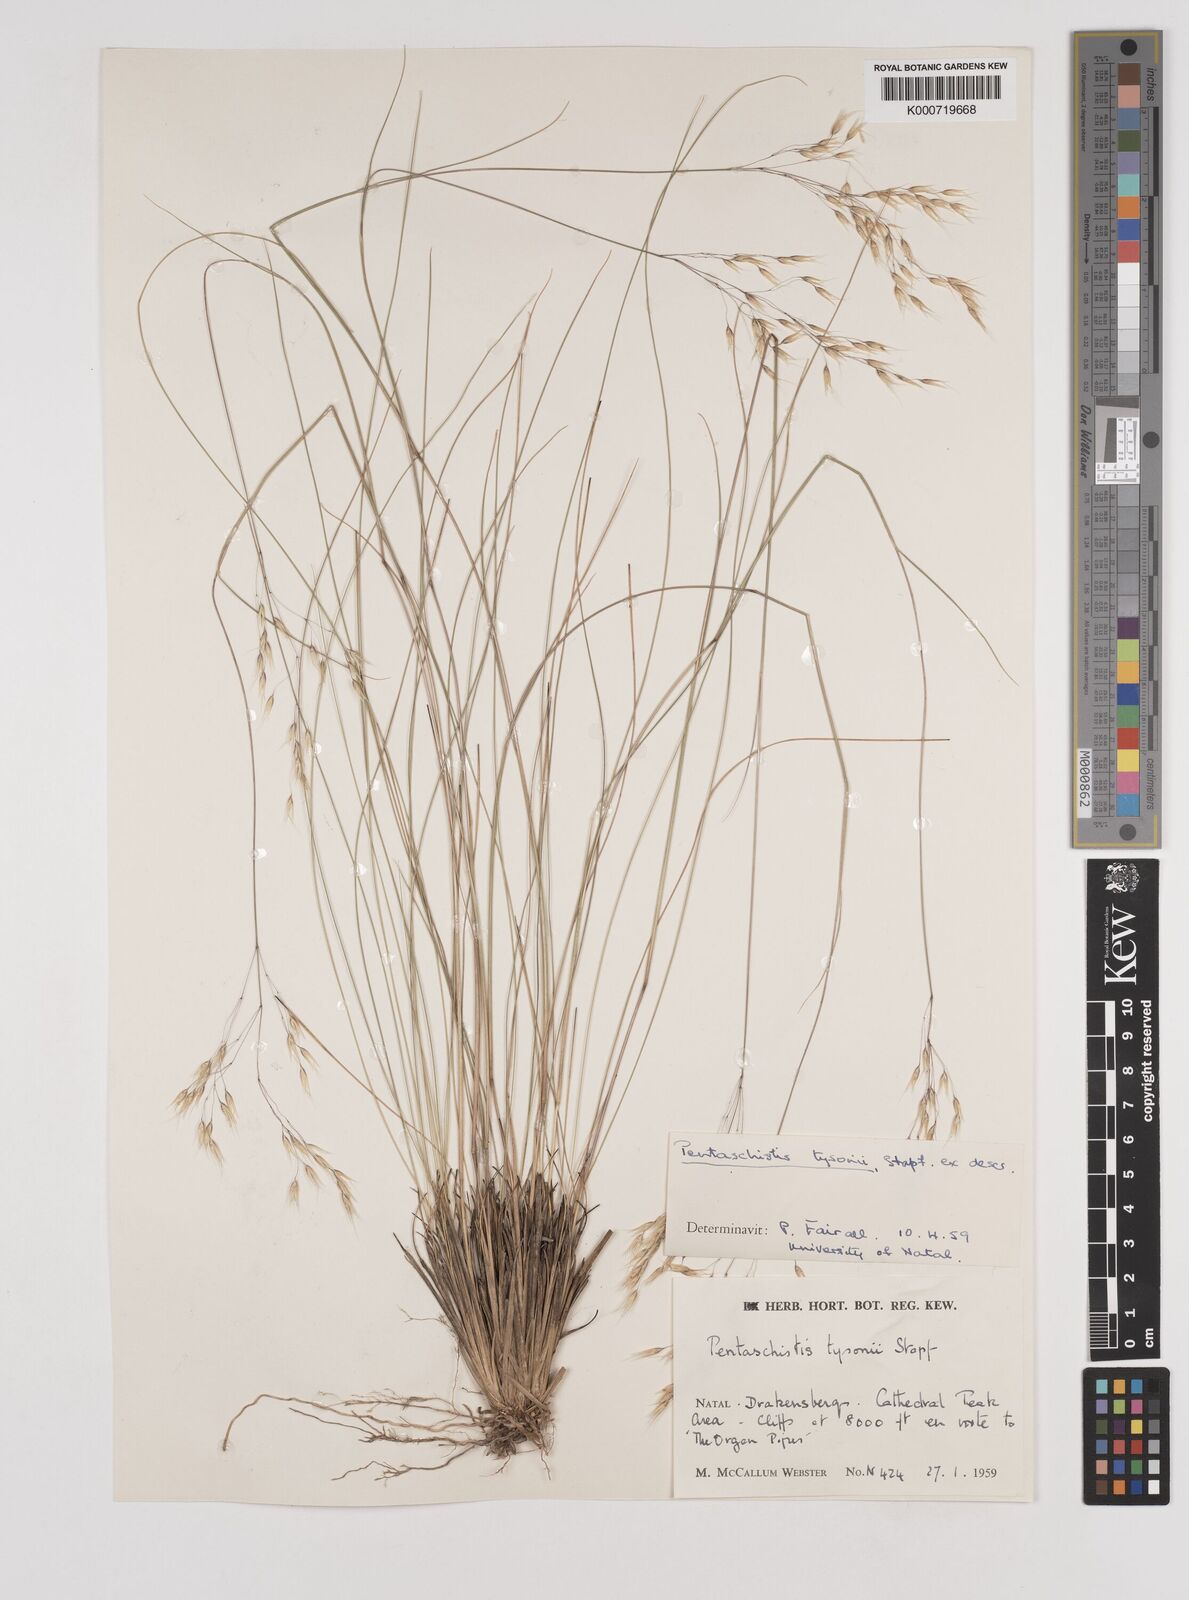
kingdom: Plantae
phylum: Tracheophyta
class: Liliopsida
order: Poales
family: Poaceae
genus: Pentameris
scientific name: Pentameris tysonii
